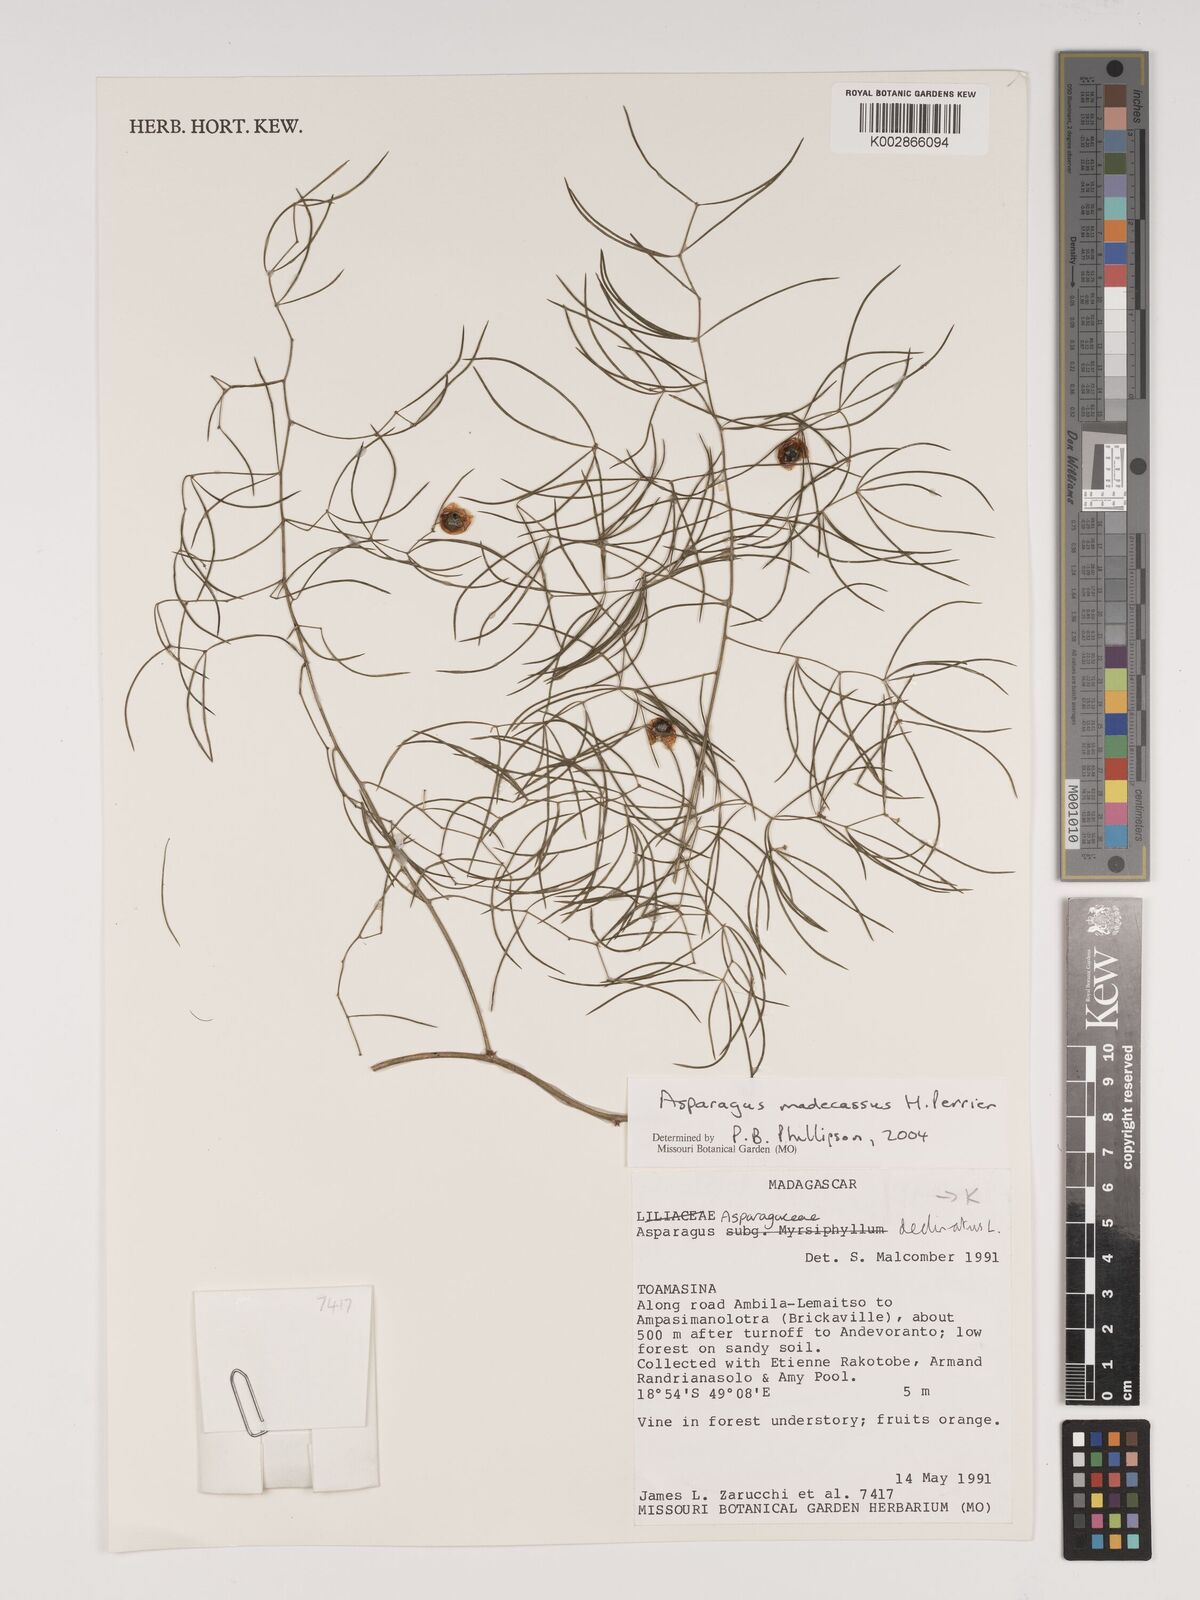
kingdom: Plantae
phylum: Tracheophyta
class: Liliopsida
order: Asparagales
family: Asparagaceae
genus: Asparagus
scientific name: Asparagus madecassus
